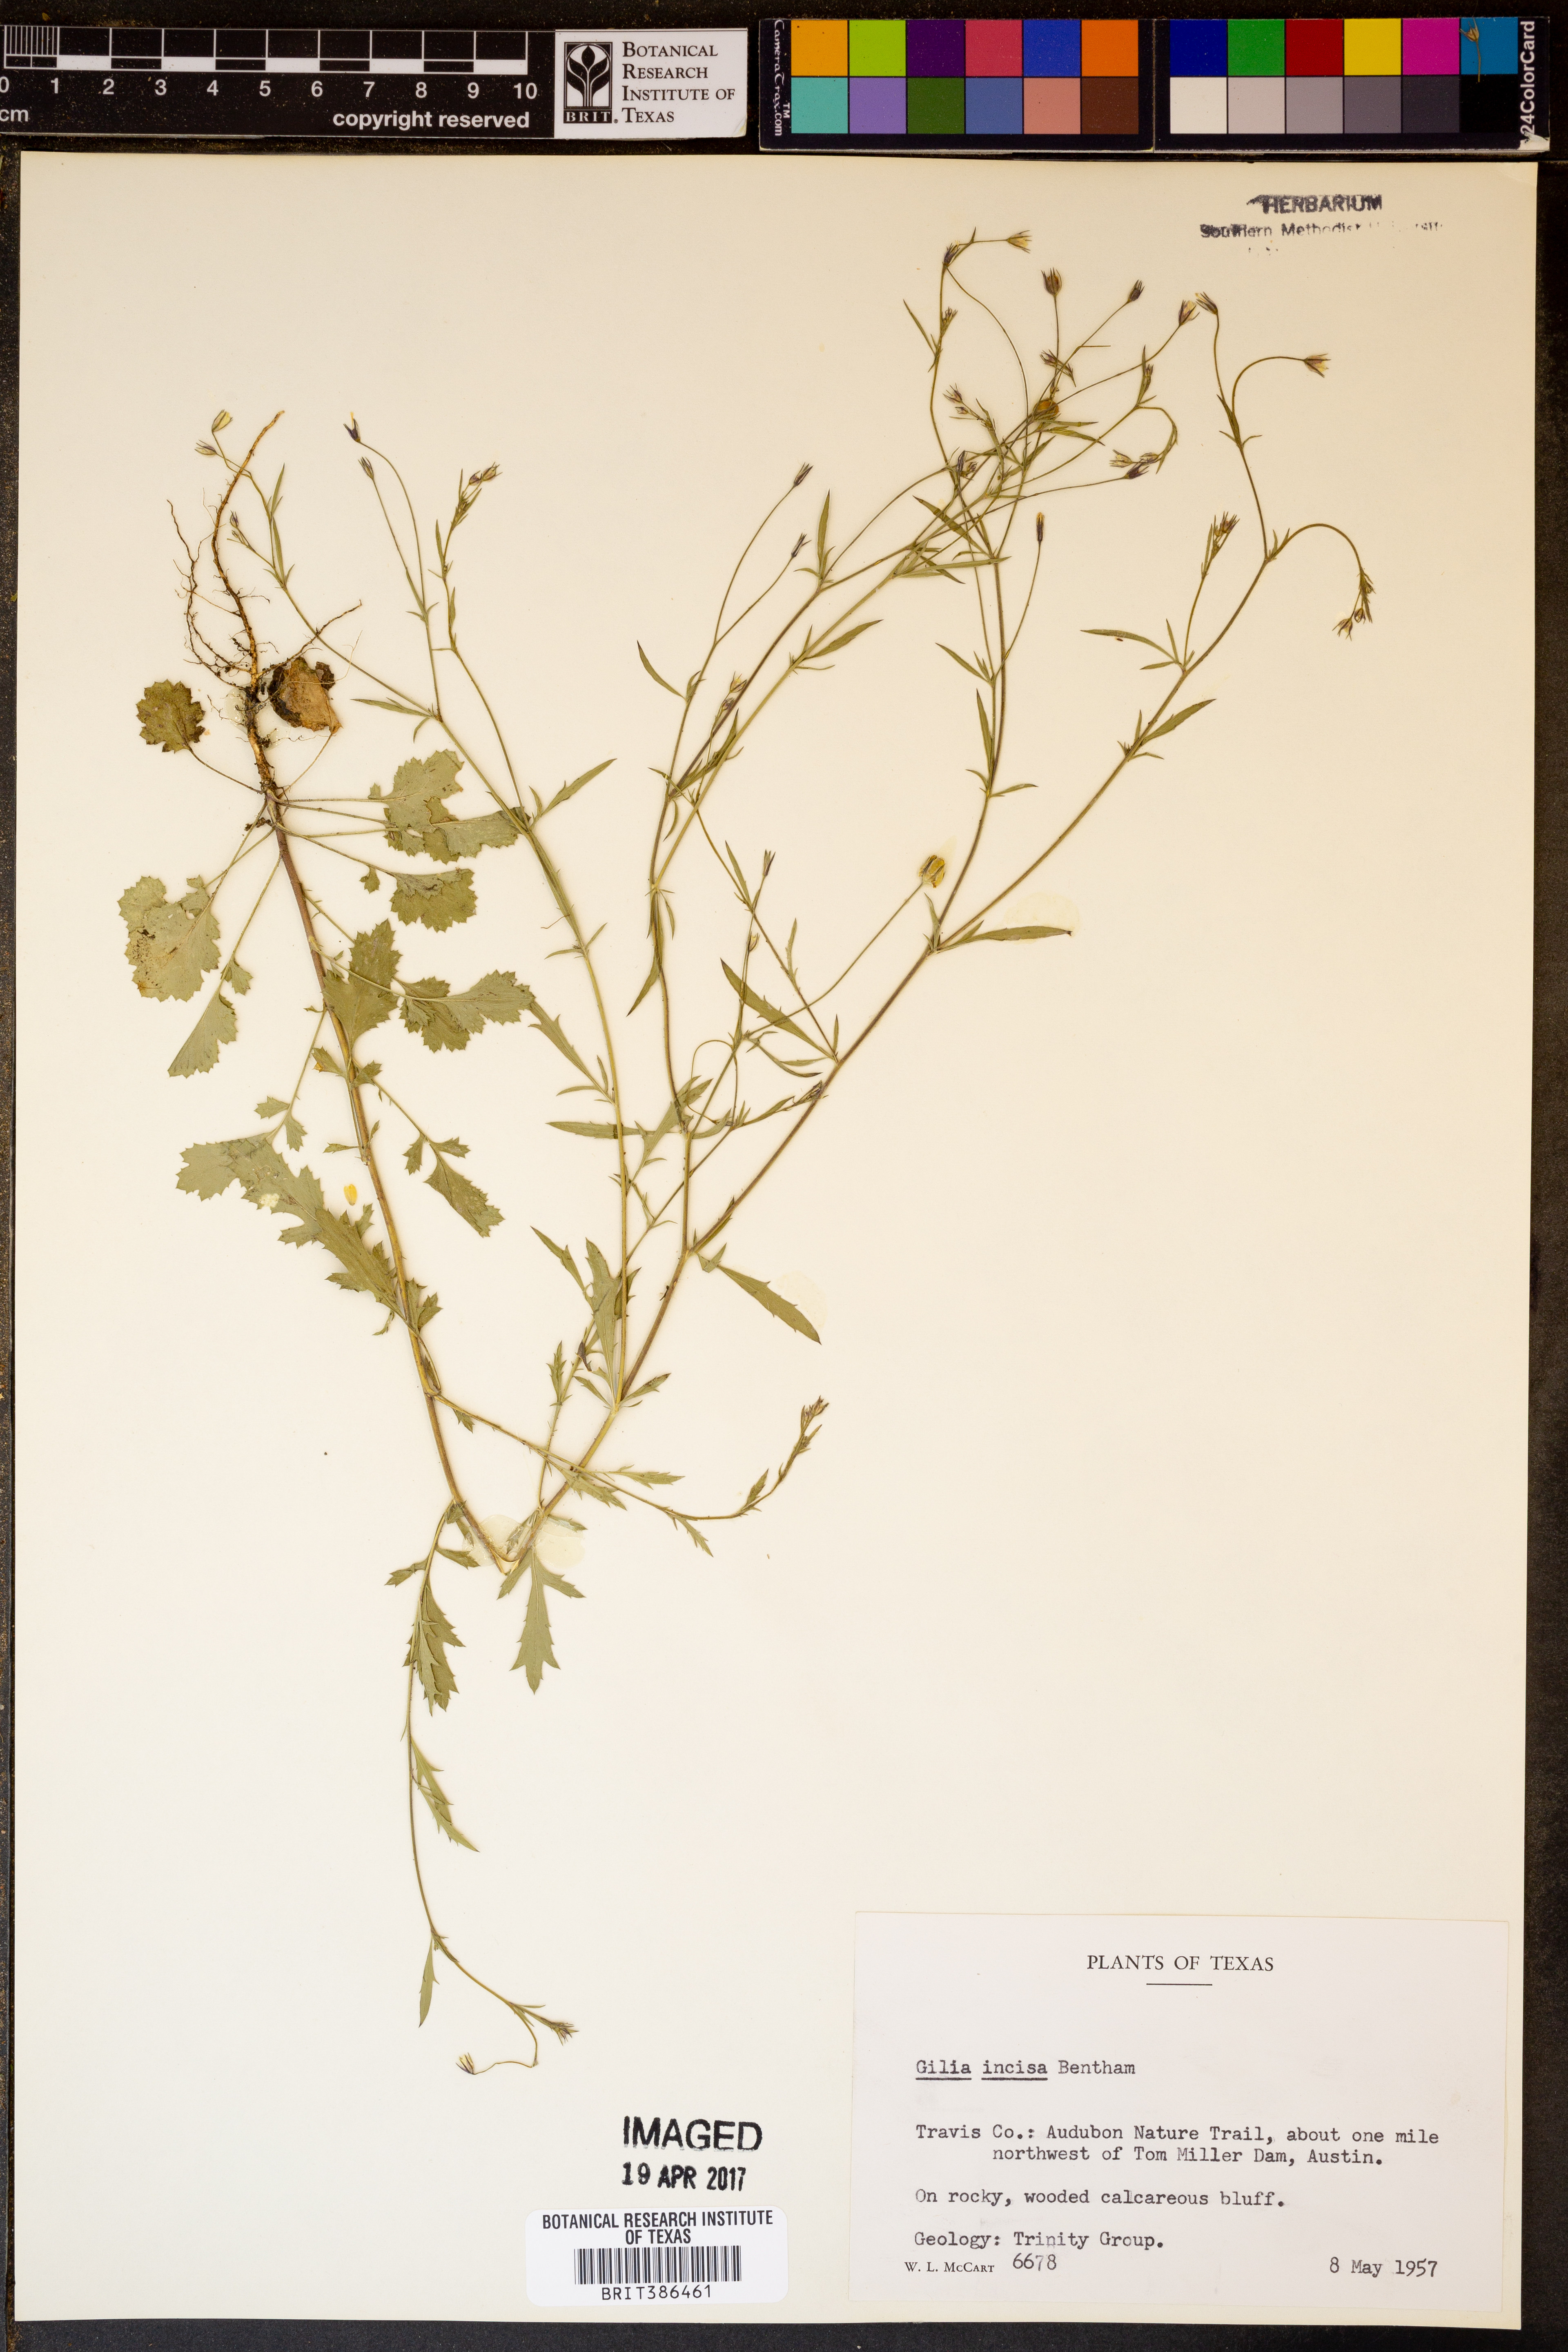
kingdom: Plantae
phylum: Tracheophyta
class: Magnoliopsida
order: Ericales
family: Polemoniaceae
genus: Giliastrum
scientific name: Giliastrum incisum
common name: Splitleaf gilia
